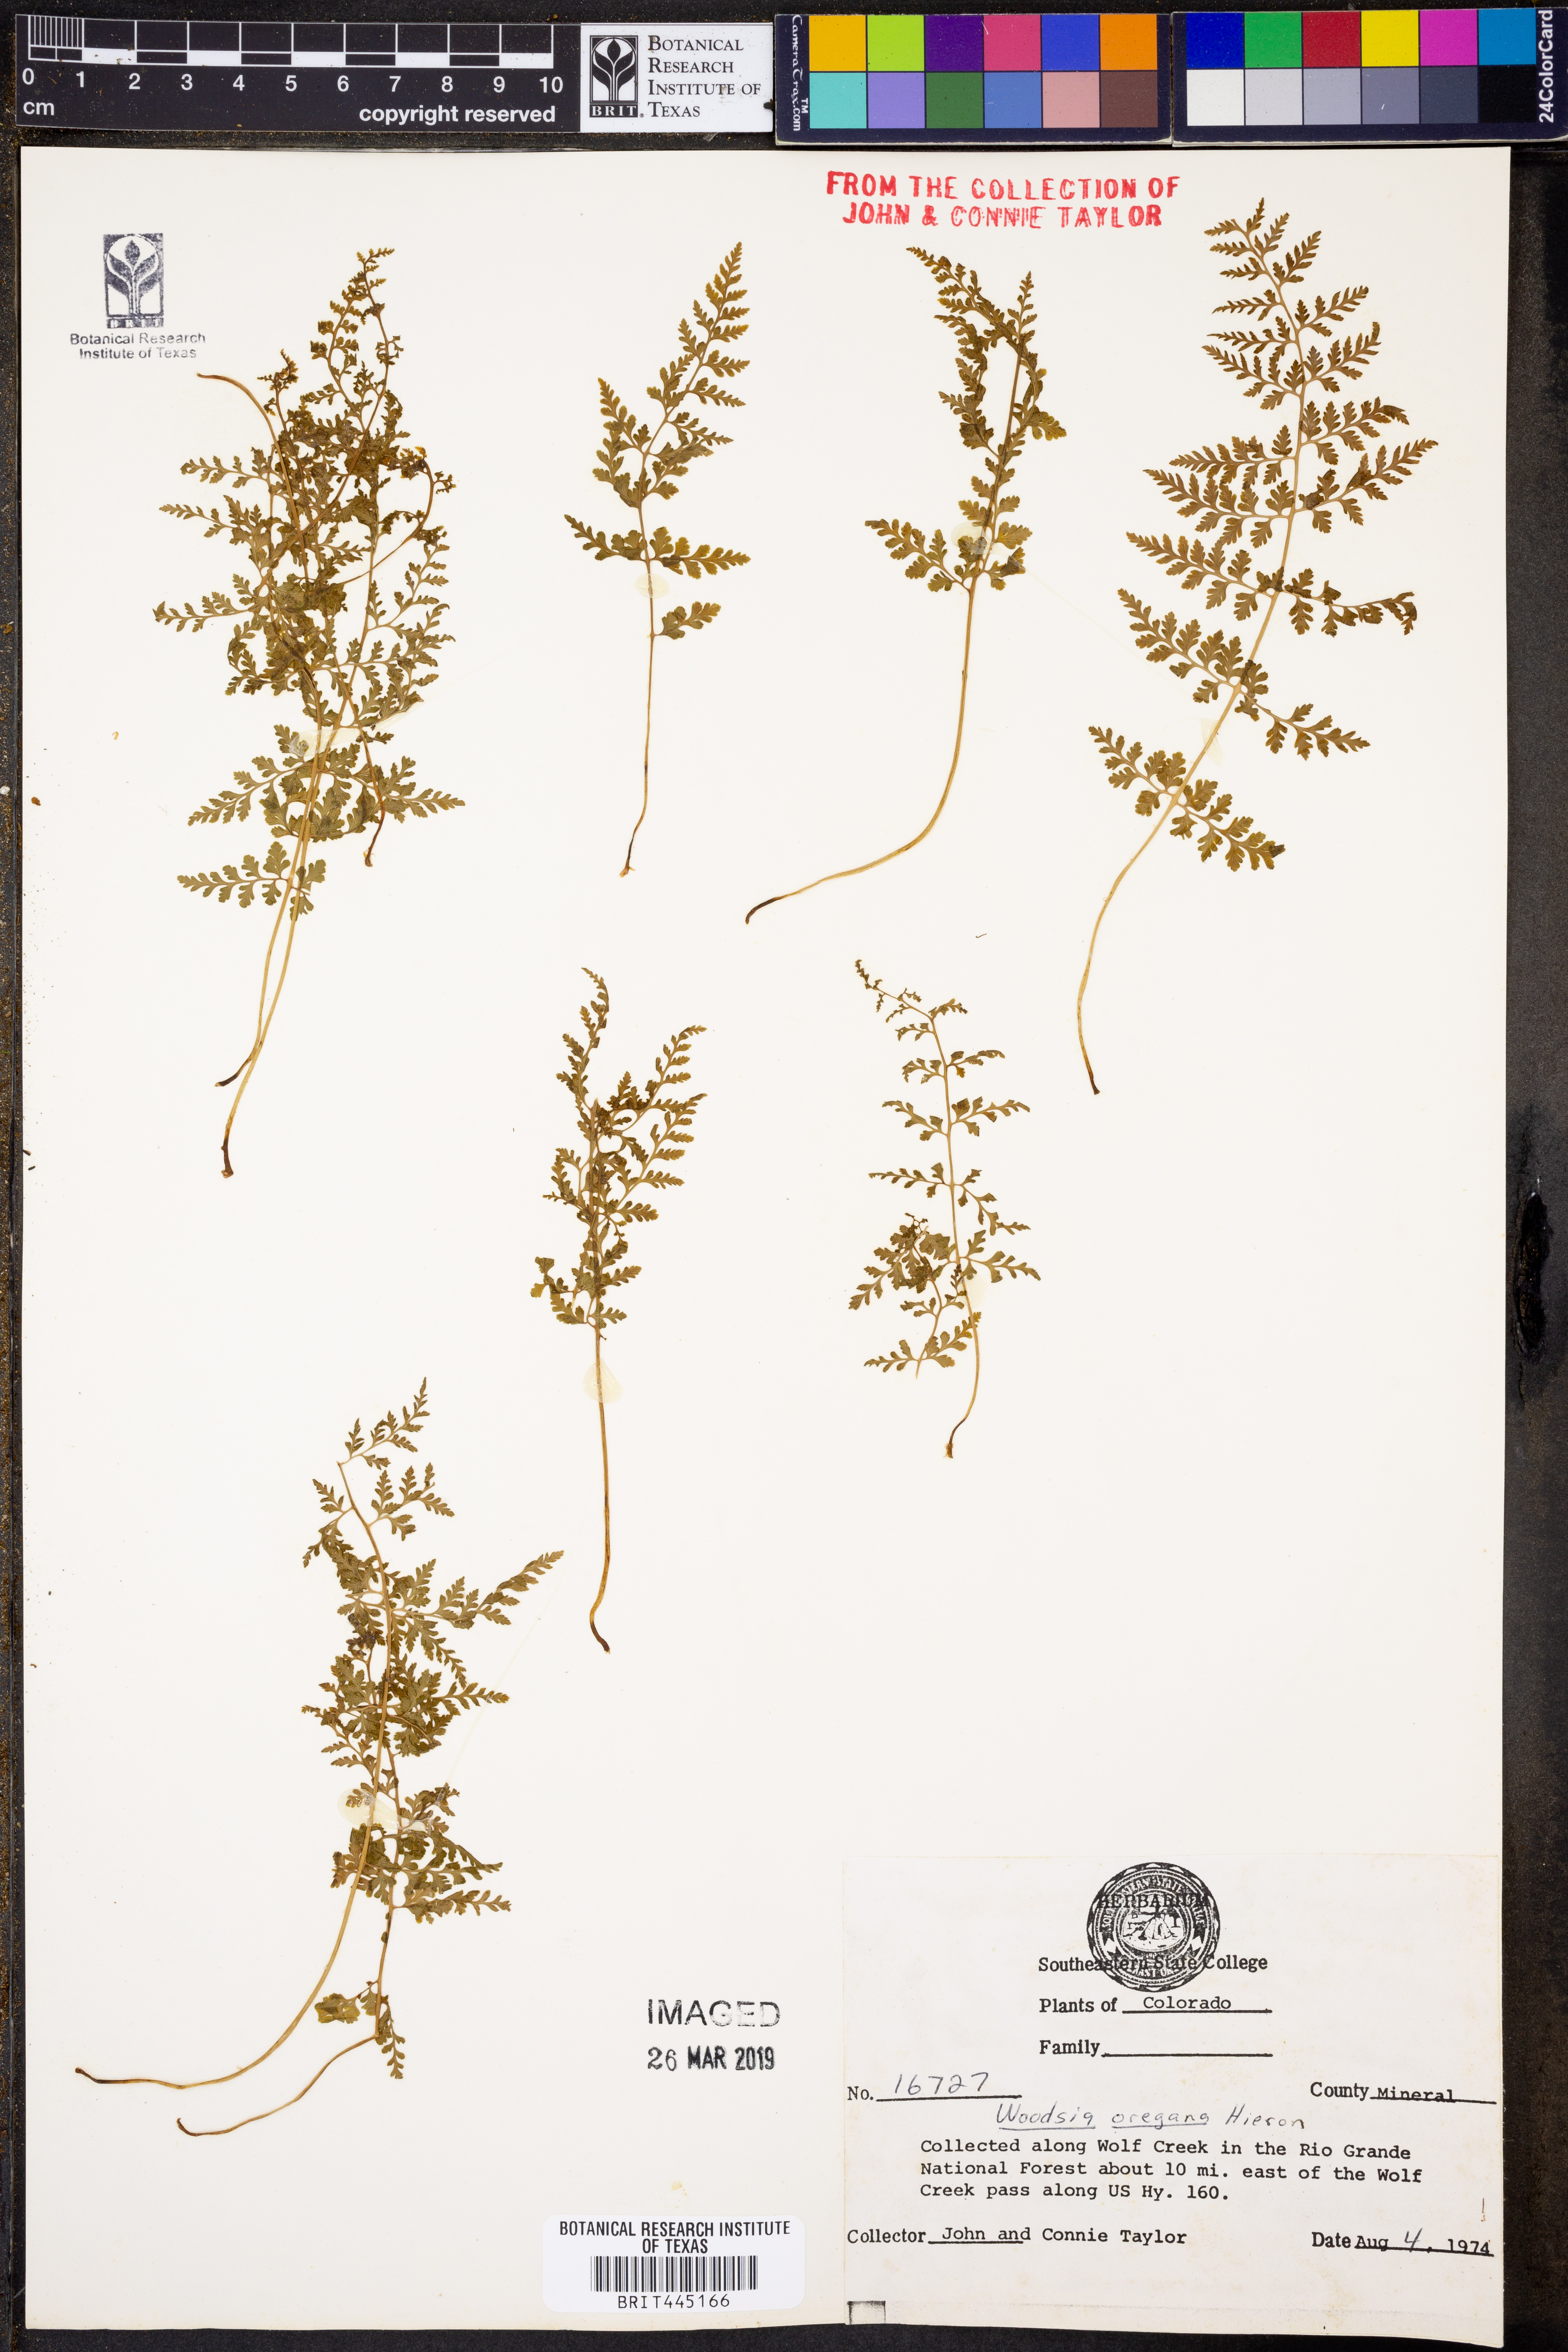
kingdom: Plantae
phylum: Tracheophyta
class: Polypodiopsida
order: Polypodiales
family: Woodsiaceae
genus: Physematium
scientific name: Physematium oreganum
